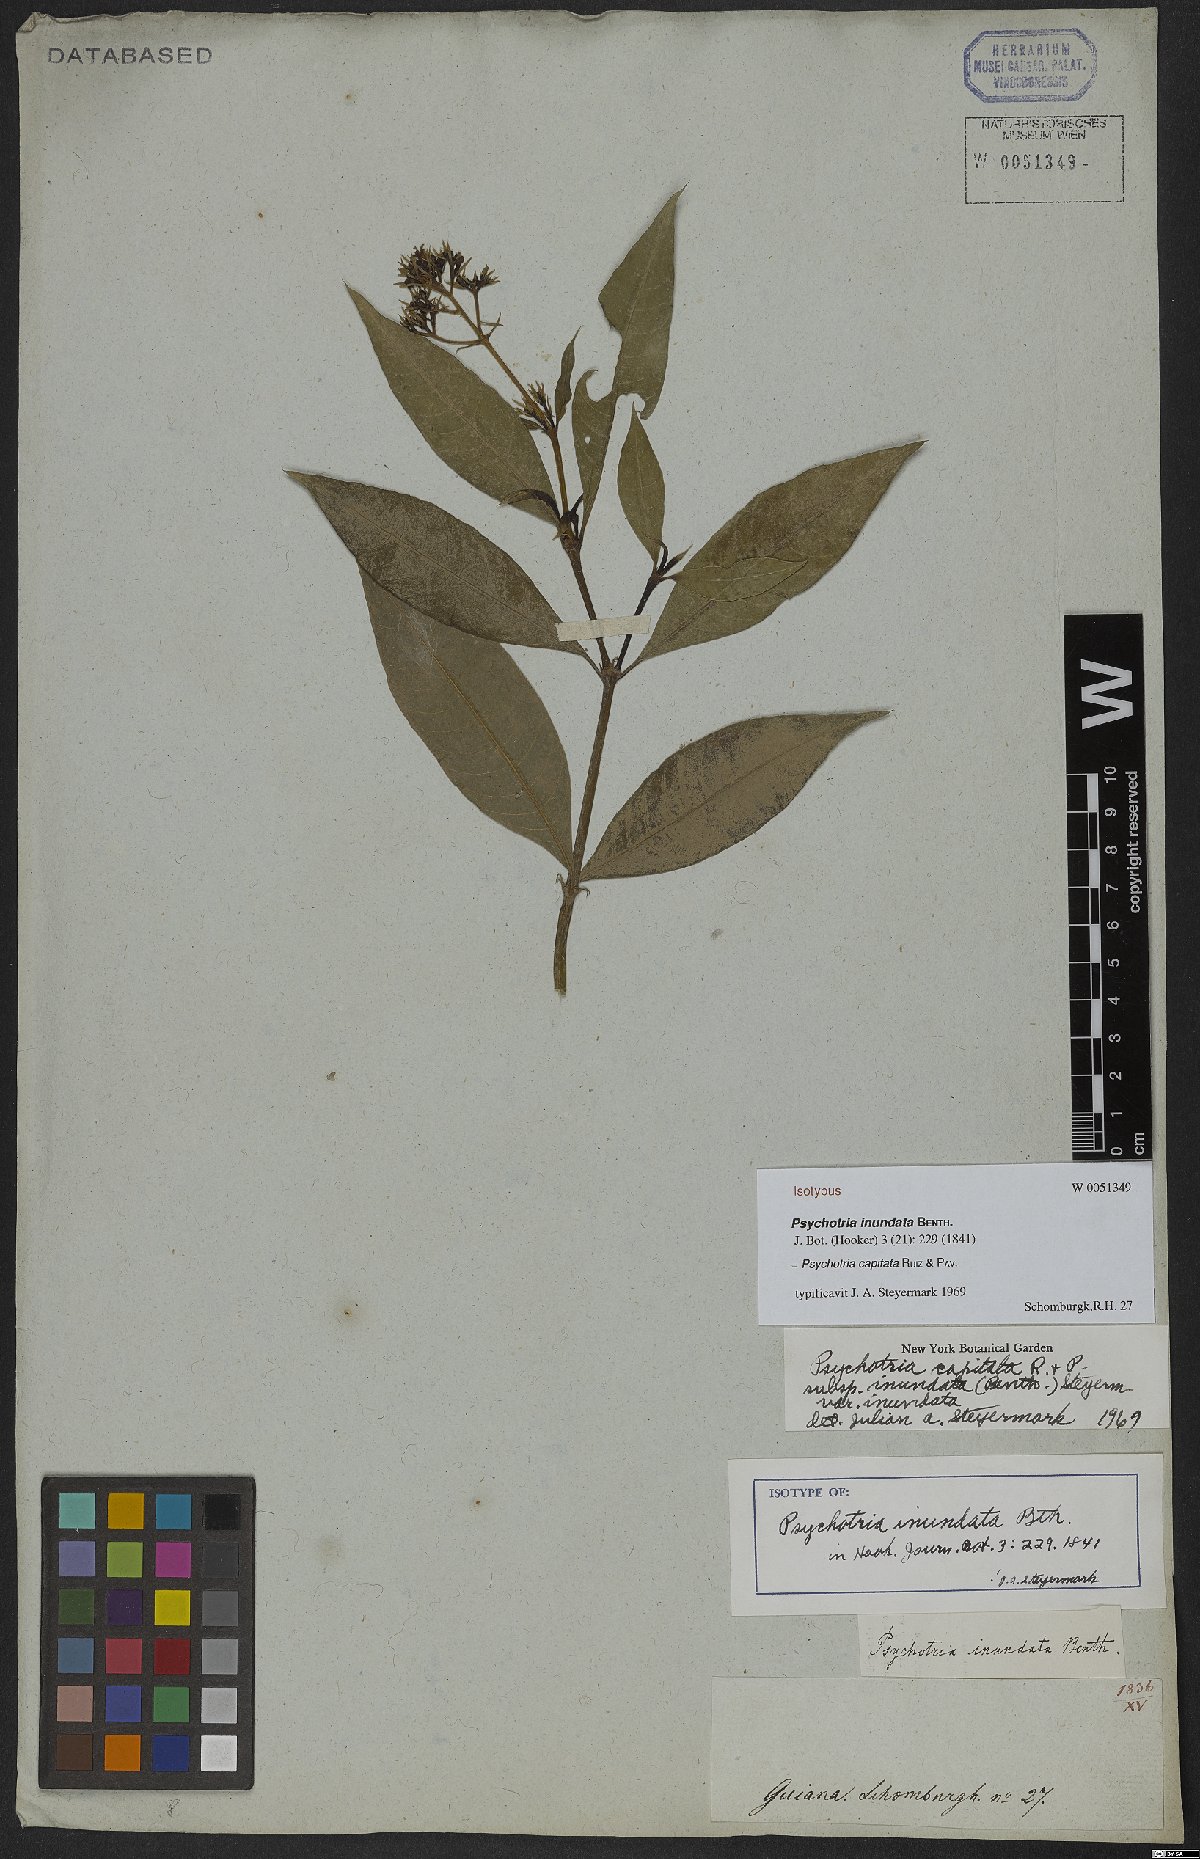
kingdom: Plantae
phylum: Tracheophyta
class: Magnoliopsida
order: Gentianales
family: Rubiaceae
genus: Palicourea
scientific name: Palicourea violacea
